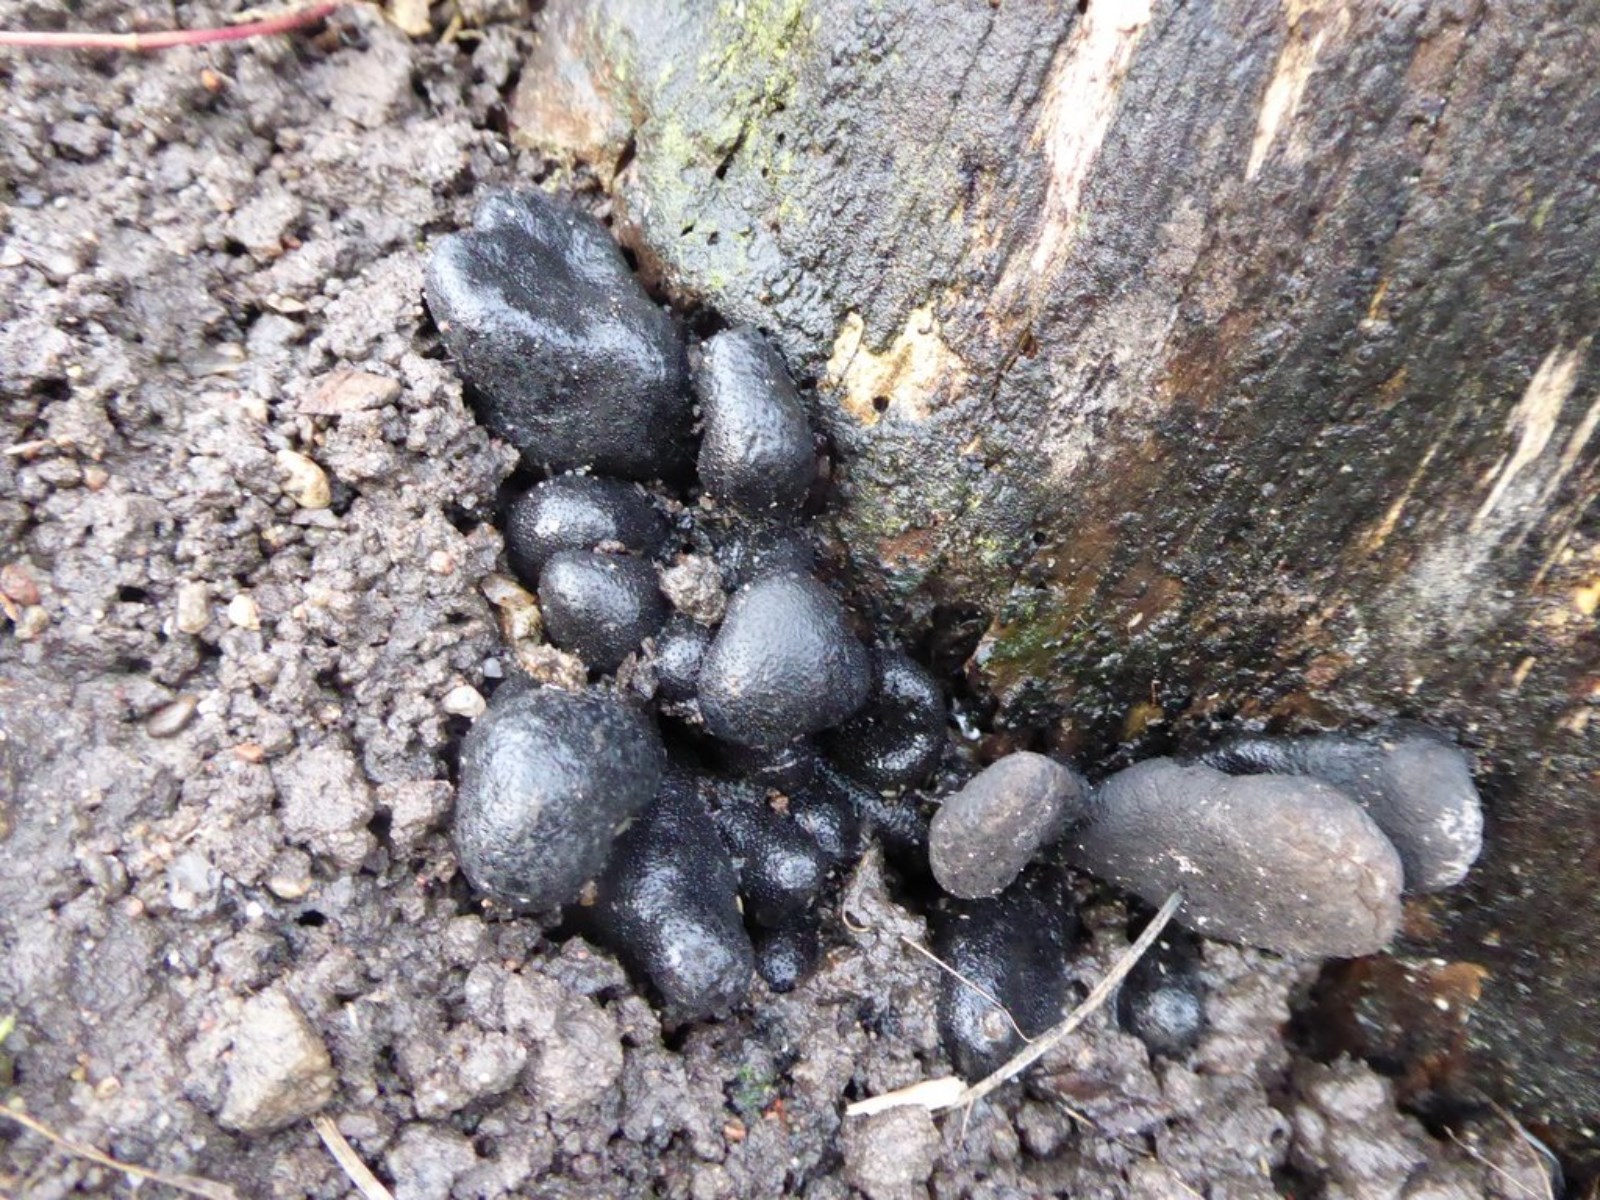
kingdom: Fungi
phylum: Ascomycota
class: Sordariomycetes
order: Xylariales
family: Xylariaceae
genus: Xylaria
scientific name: Xylaria polymorpha
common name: kølle-stødsvamp
